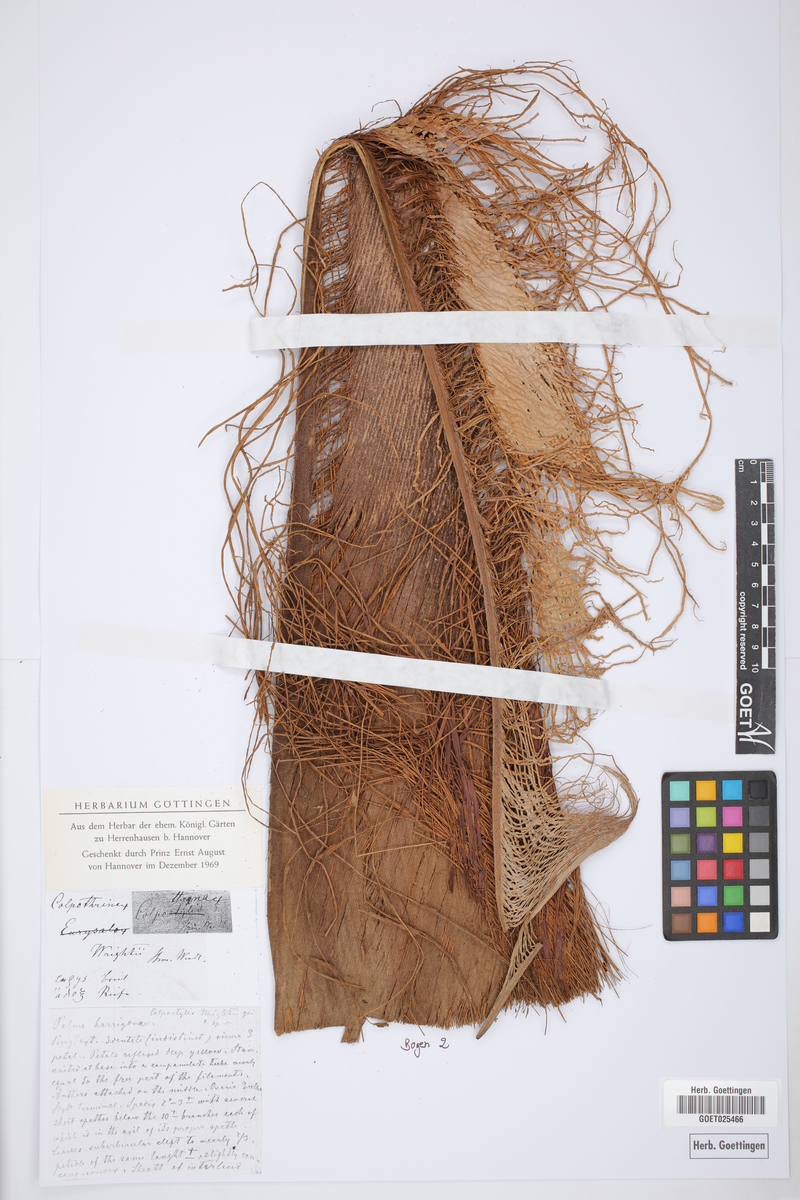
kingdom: Plantae
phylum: Tracheophyta
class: Liliopsida
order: Arecales
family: Arecaceae
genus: Colpothrinax
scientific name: Colpothrinax wrightii
